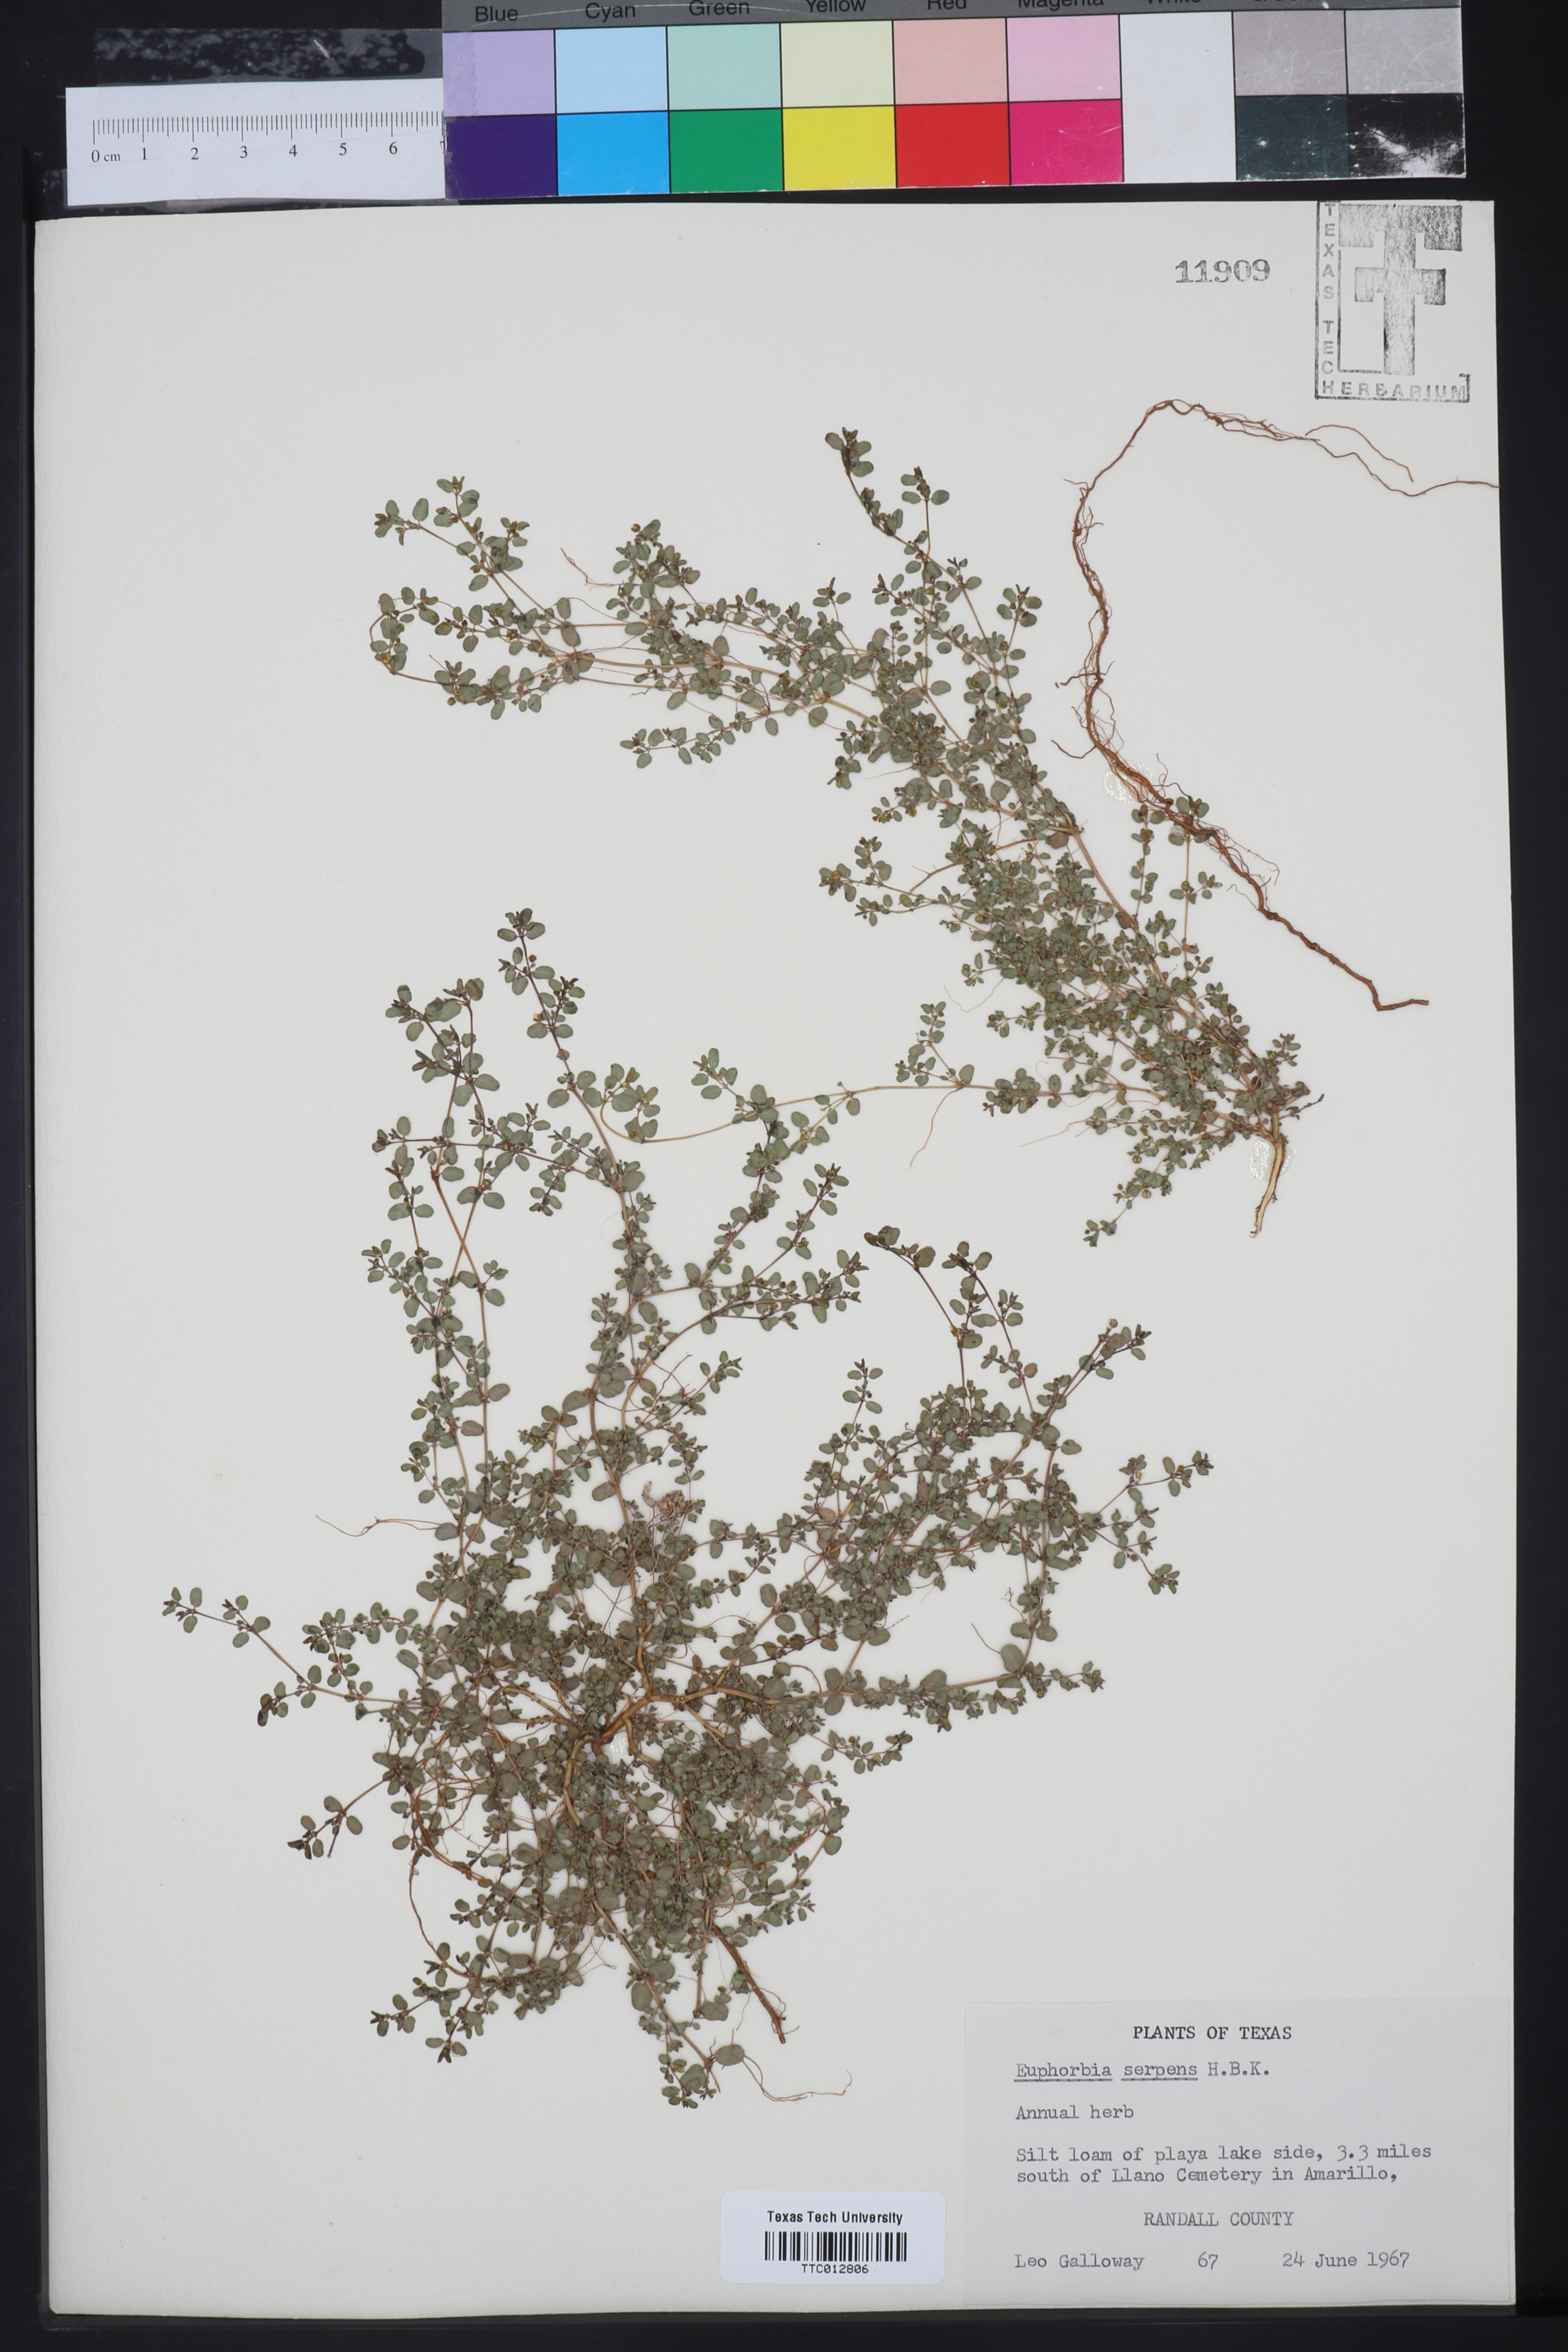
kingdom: Plantae
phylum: Tracheophyta
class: Magnoliopsida
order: Malpighiales
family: Euphorbiaceae
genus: Euphorbia
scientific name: Euphorbia serpens
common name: Matted sandmat
